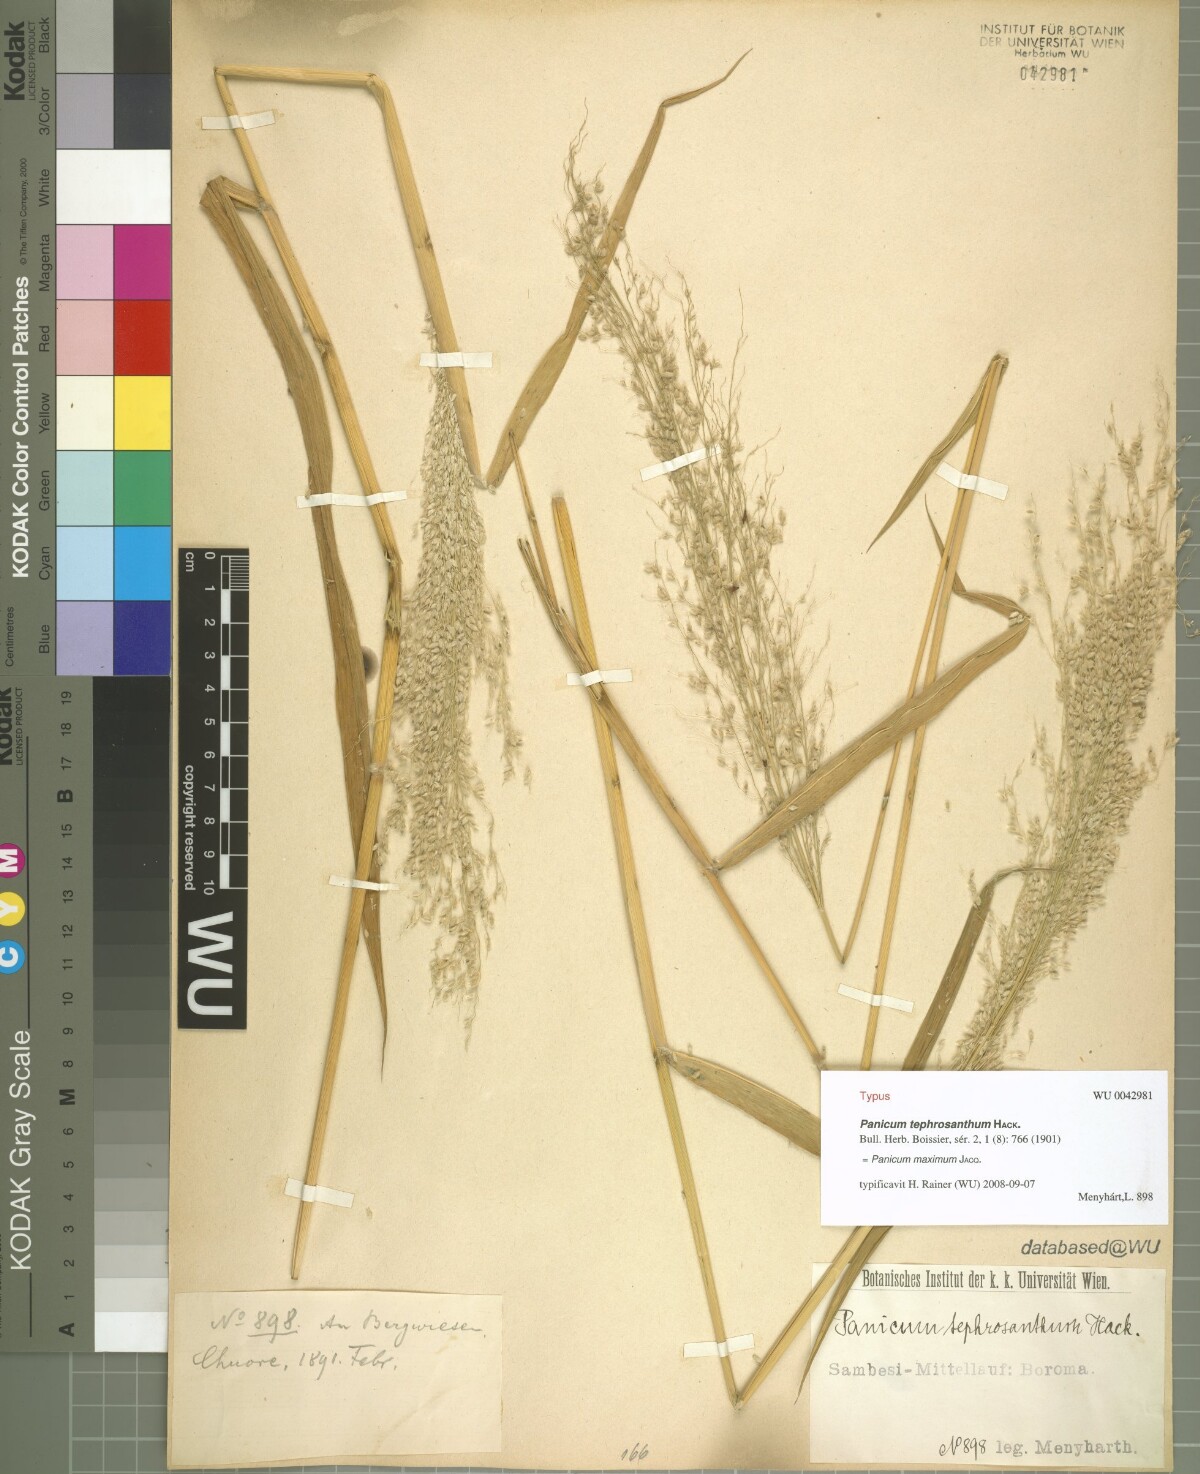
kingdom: Plantae
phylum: Tracheophyta
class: Liliopsida
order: Poales
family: Poaceae
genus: Megathyrsus
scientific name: Megathyrsus maximus
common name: Guineagrass
